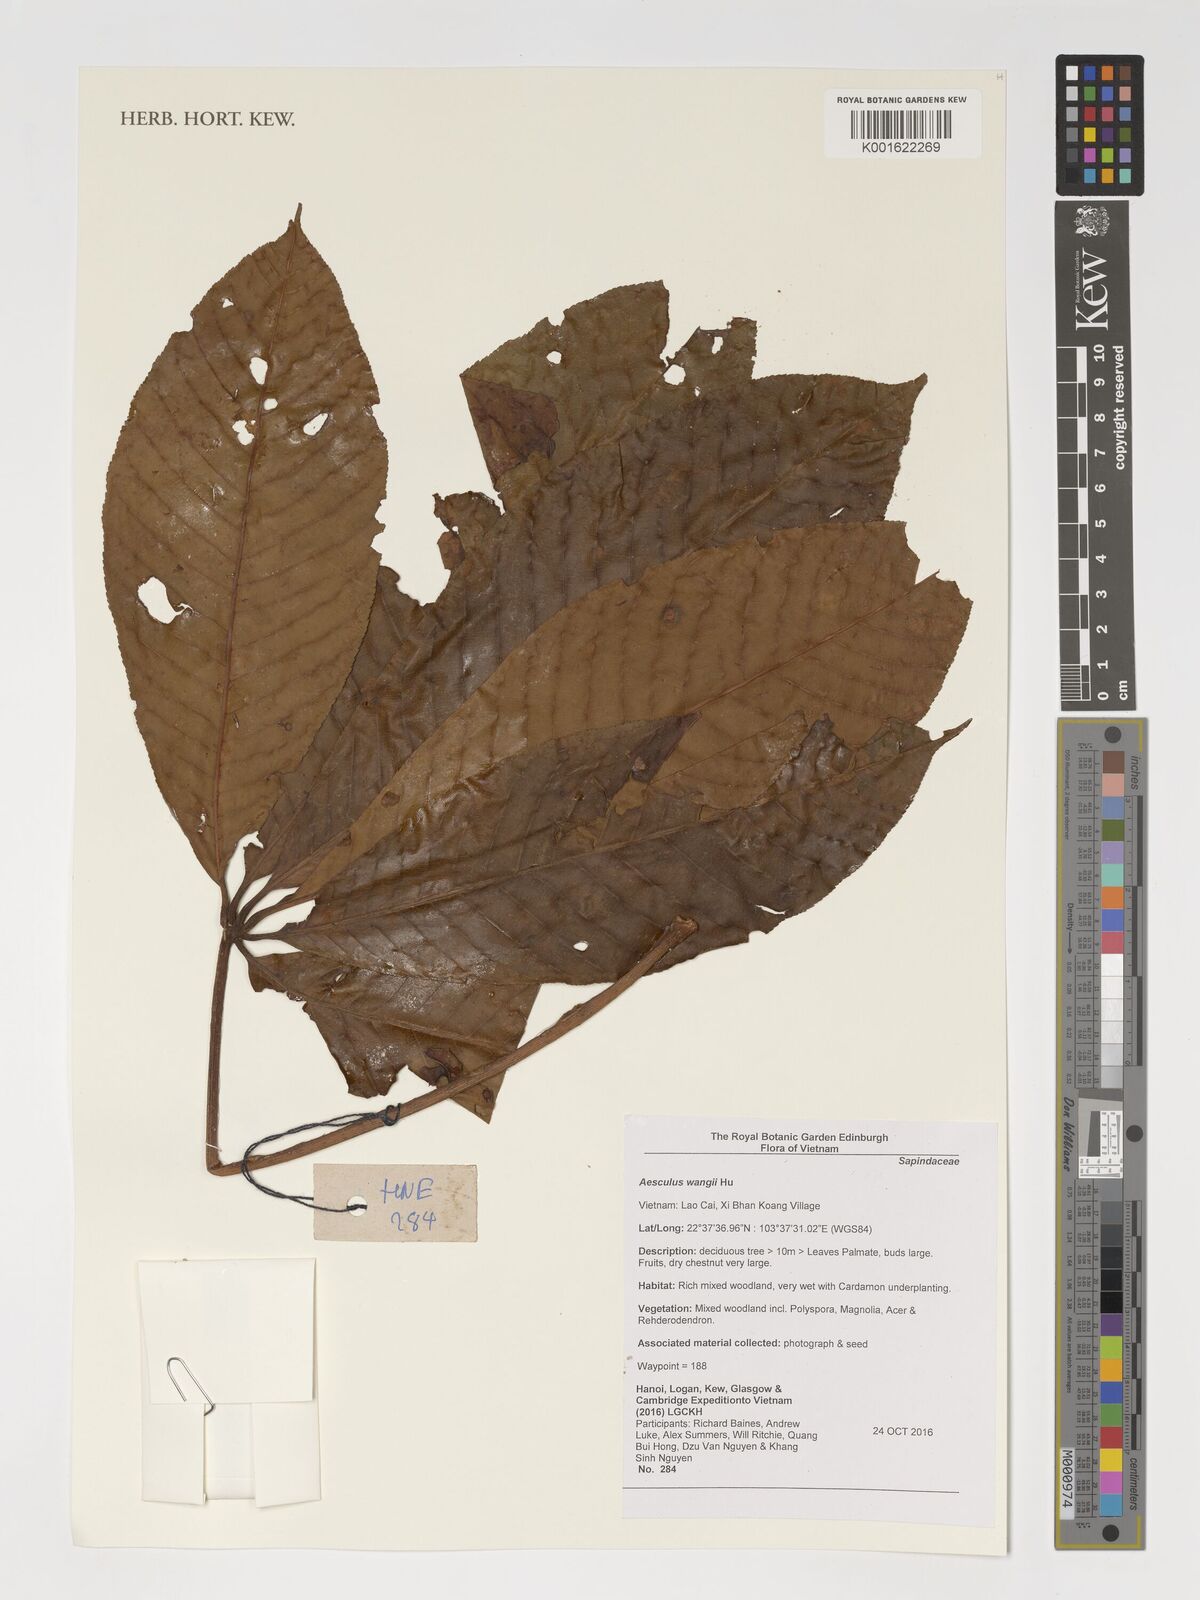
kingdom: Plantae
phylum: Tracheophyta
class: Magnoliopsida
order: Sapindales
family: Sapindaceae
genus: Aesculus
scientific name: Aesculus
